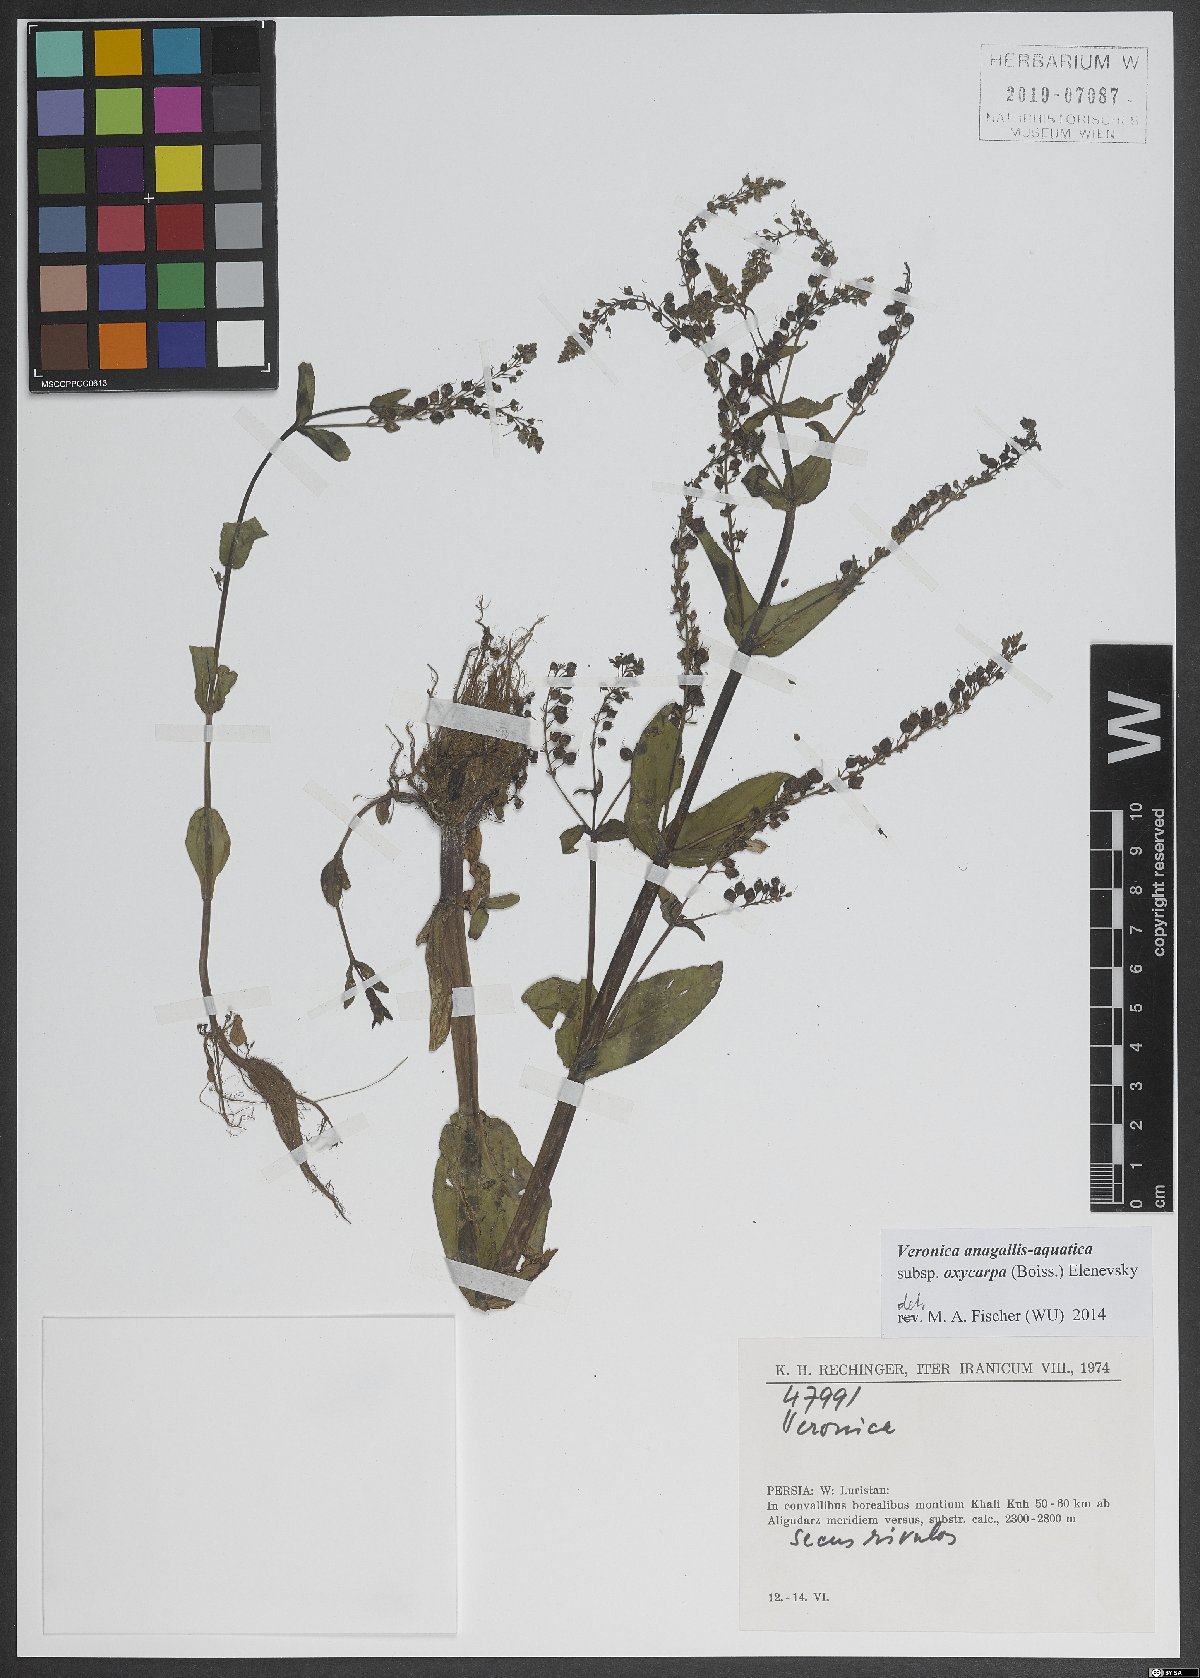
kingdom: Plantae
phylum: Tracheophyta
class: Magnoliopsida
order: Lamiales
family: Plantaginaceae
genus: Veronica
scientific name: Veronica oxycarpa
